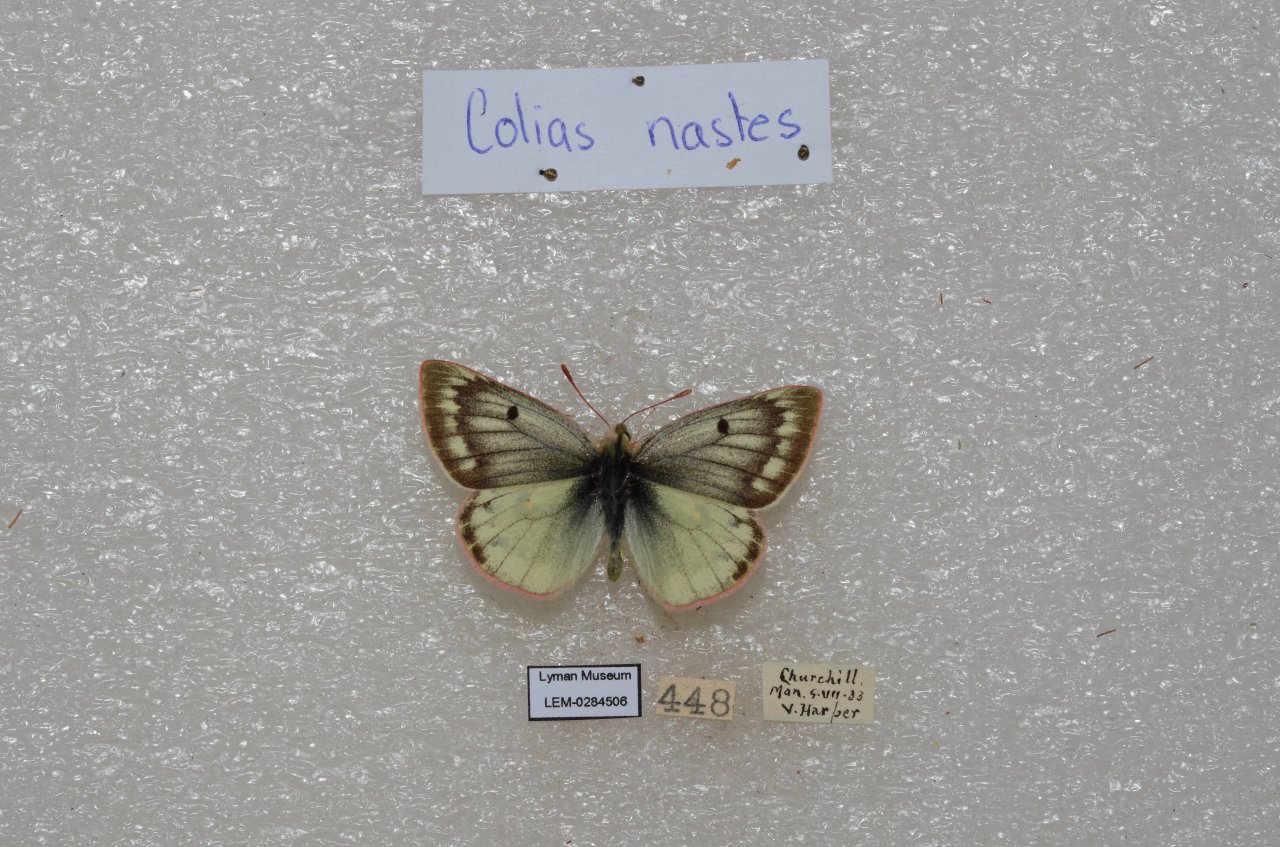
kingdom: Animalia
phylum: Arthropoda
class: Insecta
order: Lepidoptera
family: Pieridae
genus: Colias
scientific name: Colias nastes
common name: Labrador Sulphur
